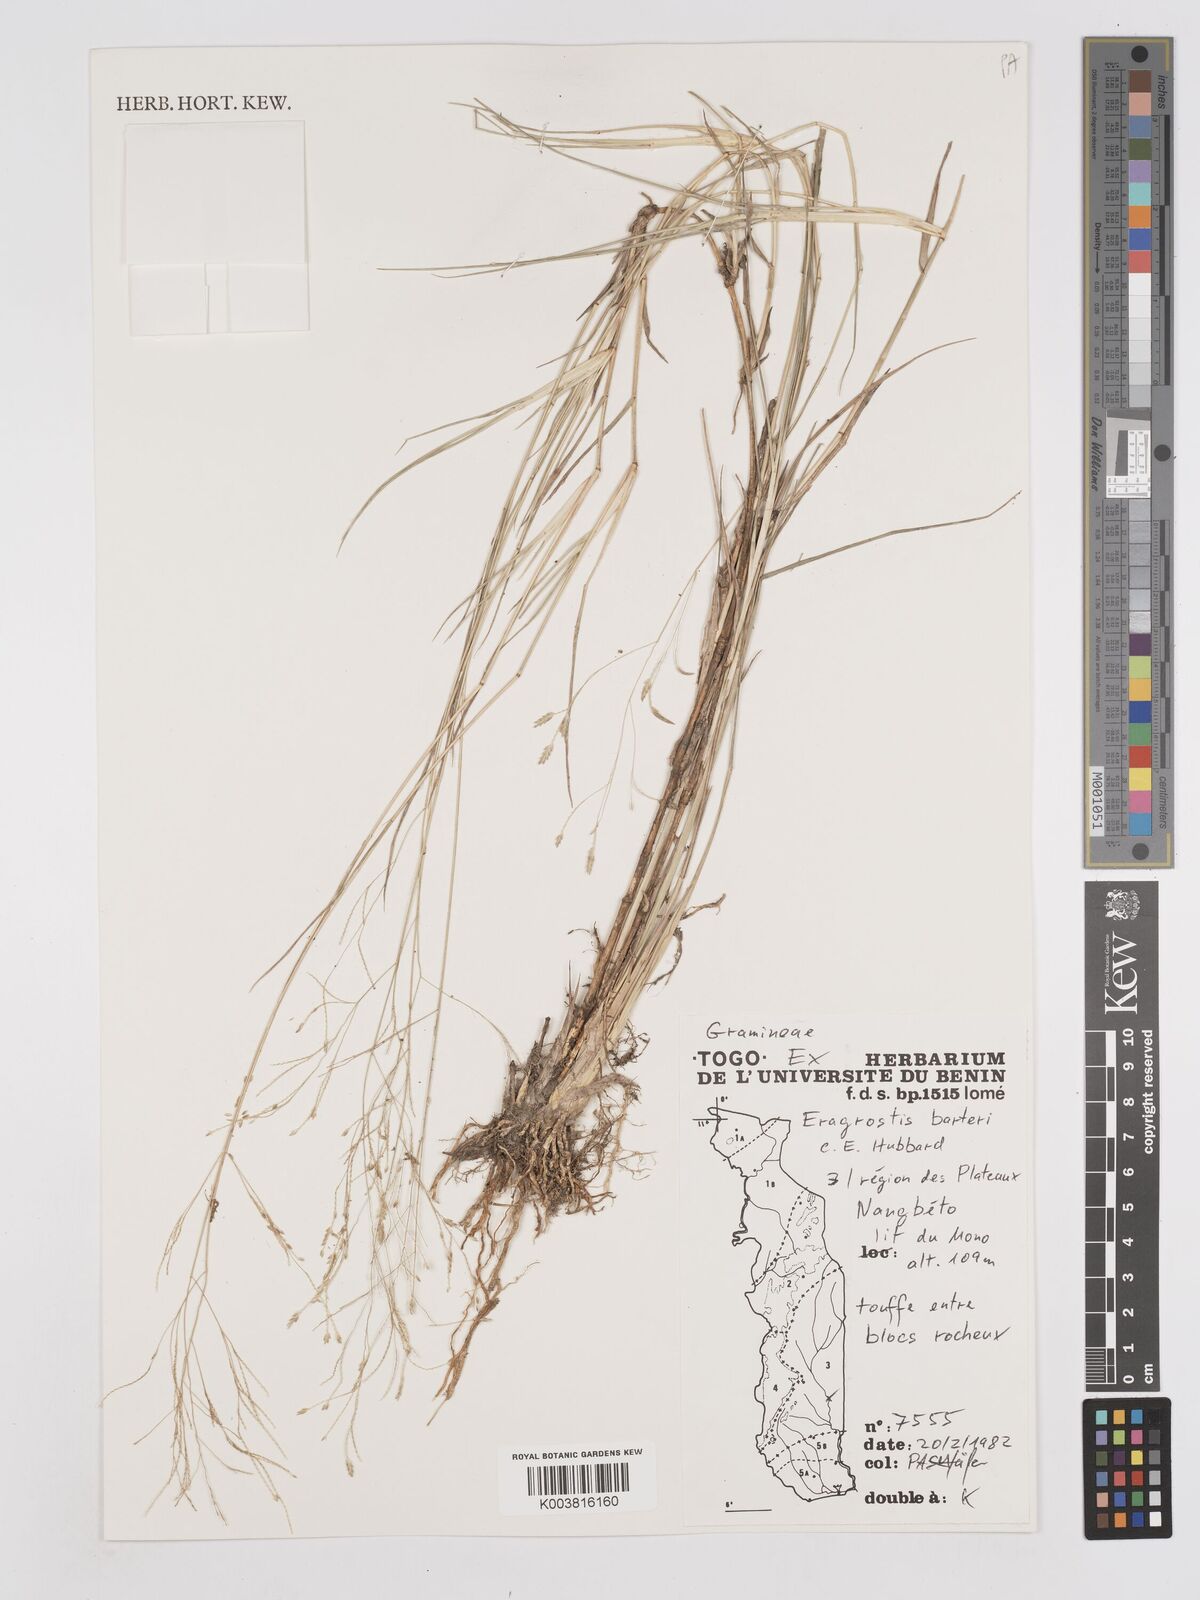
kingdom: Plantae
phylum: Tracheophyta
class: Liliopsida
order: Poales
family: Poaceae
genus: Eragrostis
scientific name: Eragrostis barteri
